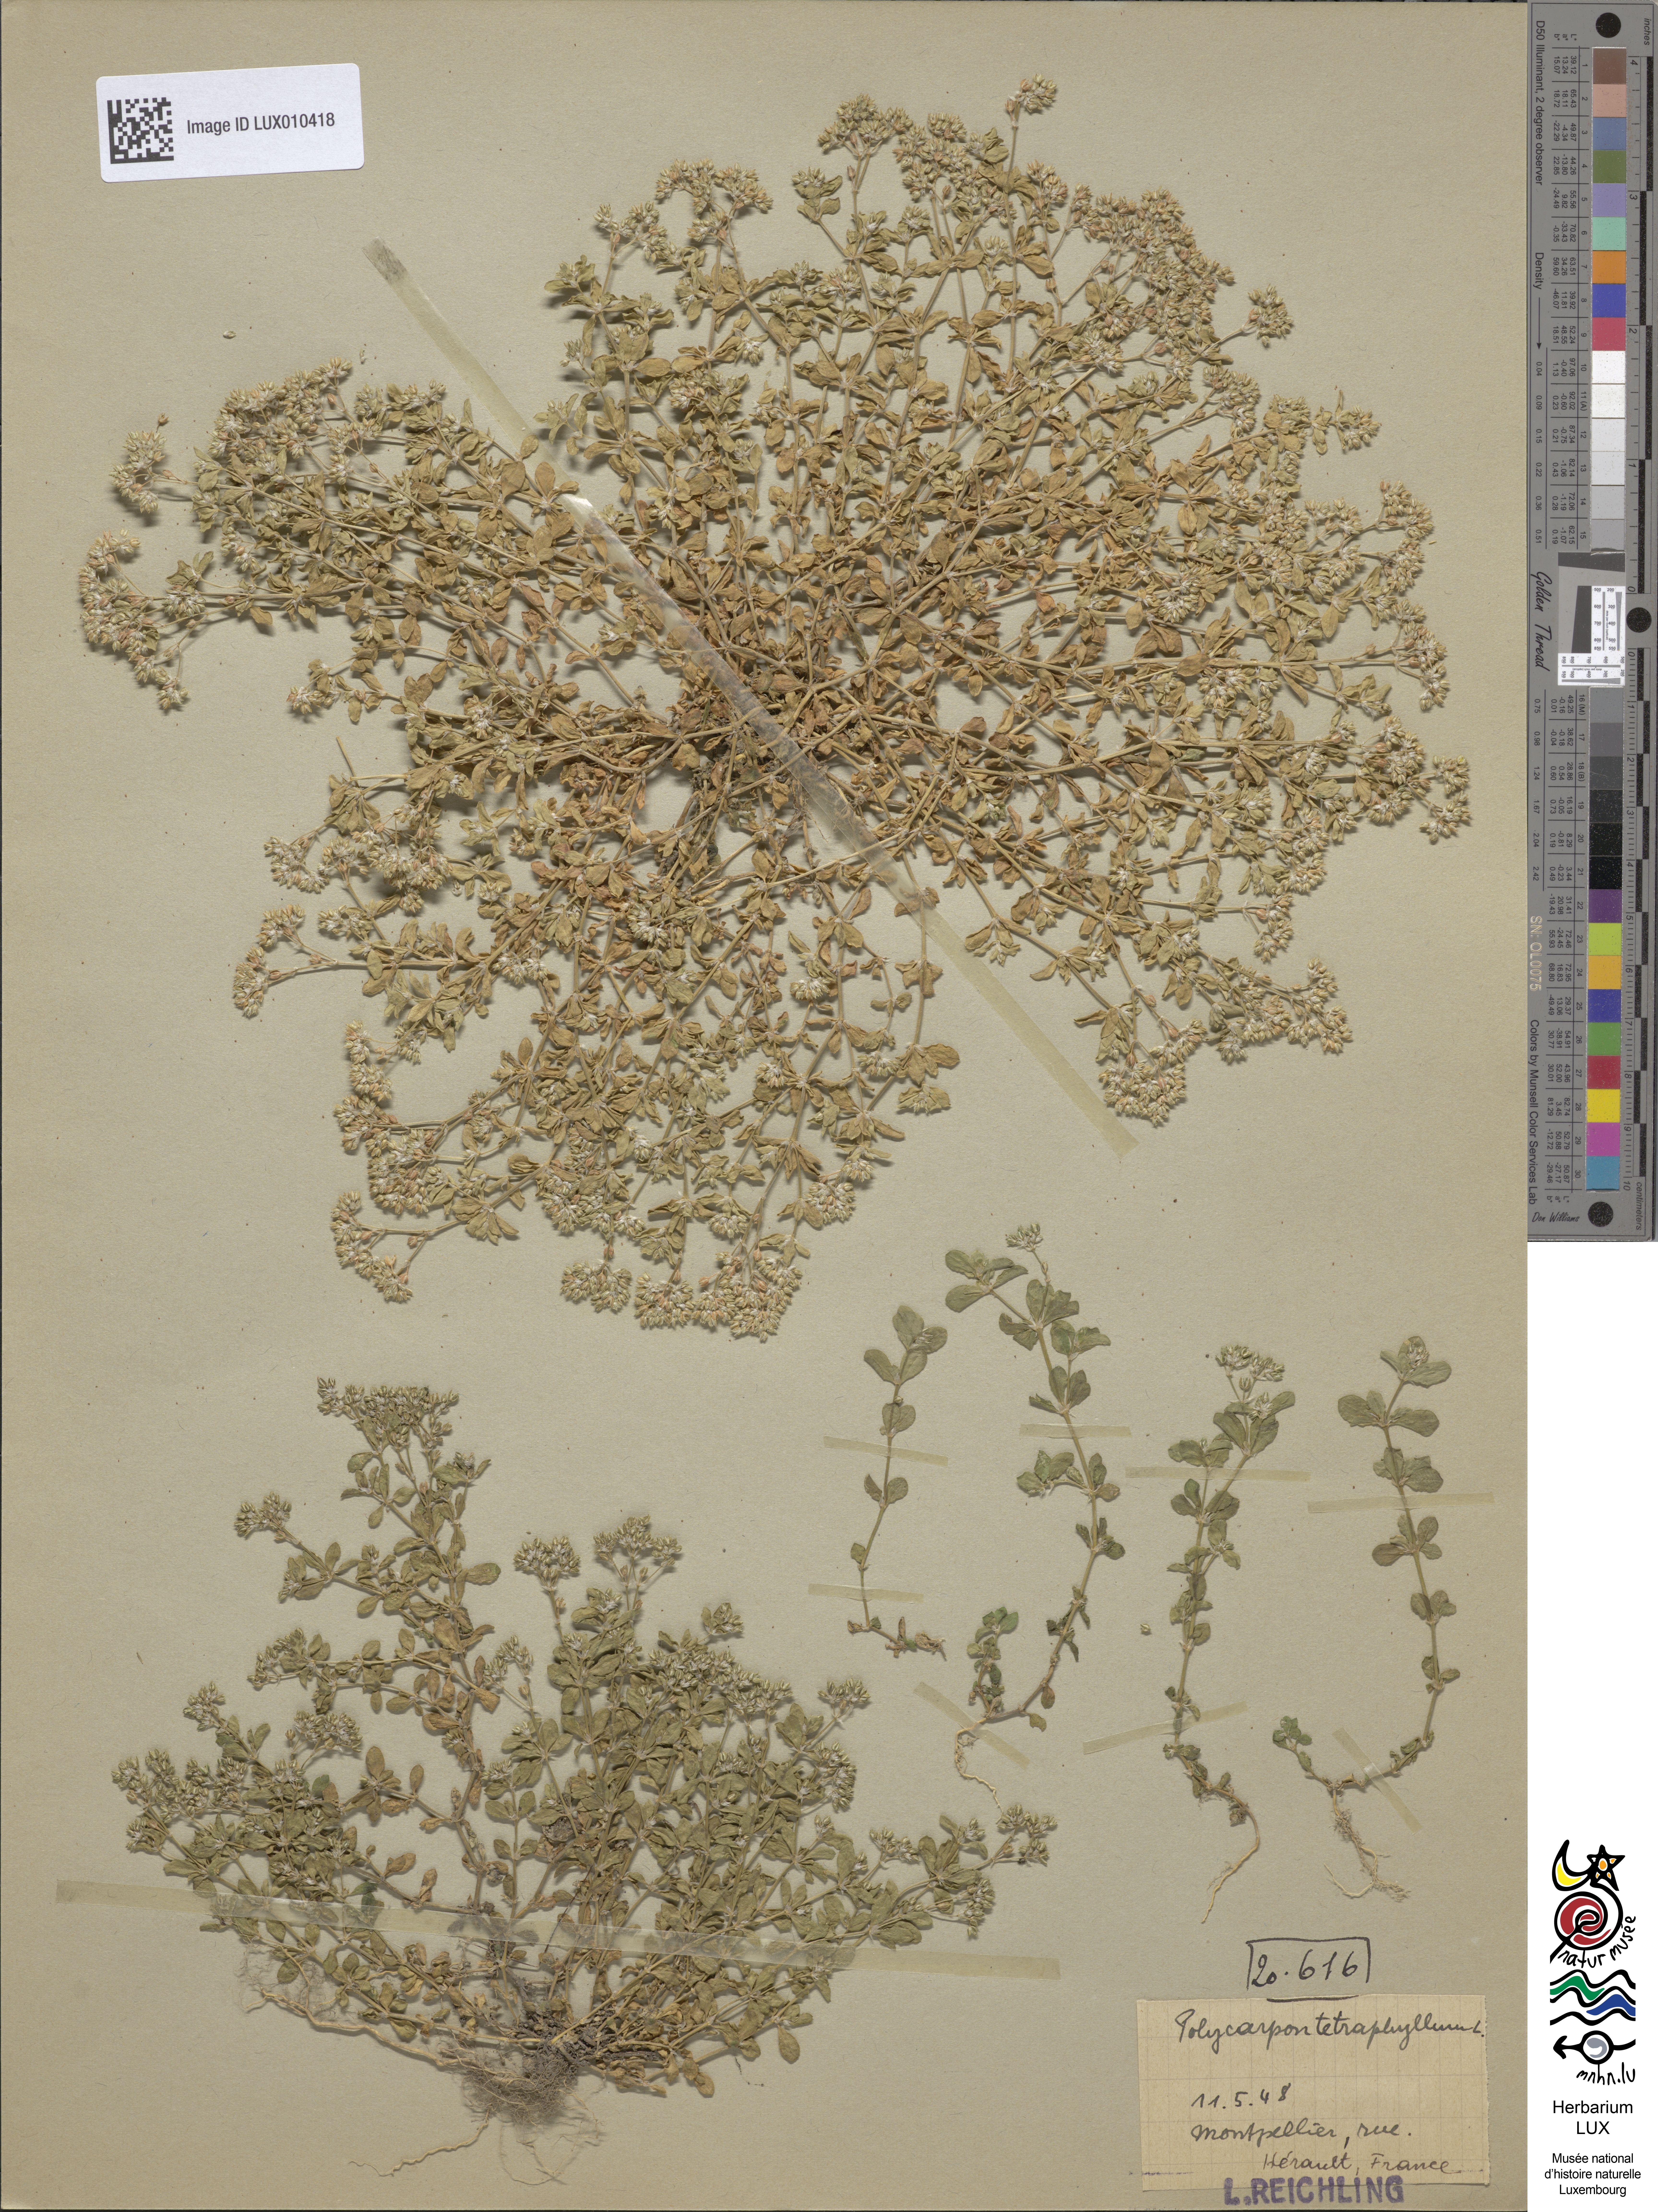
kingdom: Plantae
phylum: Tracheophyta
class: Magnoliopsida
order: Caryophyllales
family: Caryophyllaceae
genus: Polycarpon
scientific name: Polycarpon tetraphyllum
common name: Four-leaved all-seed
